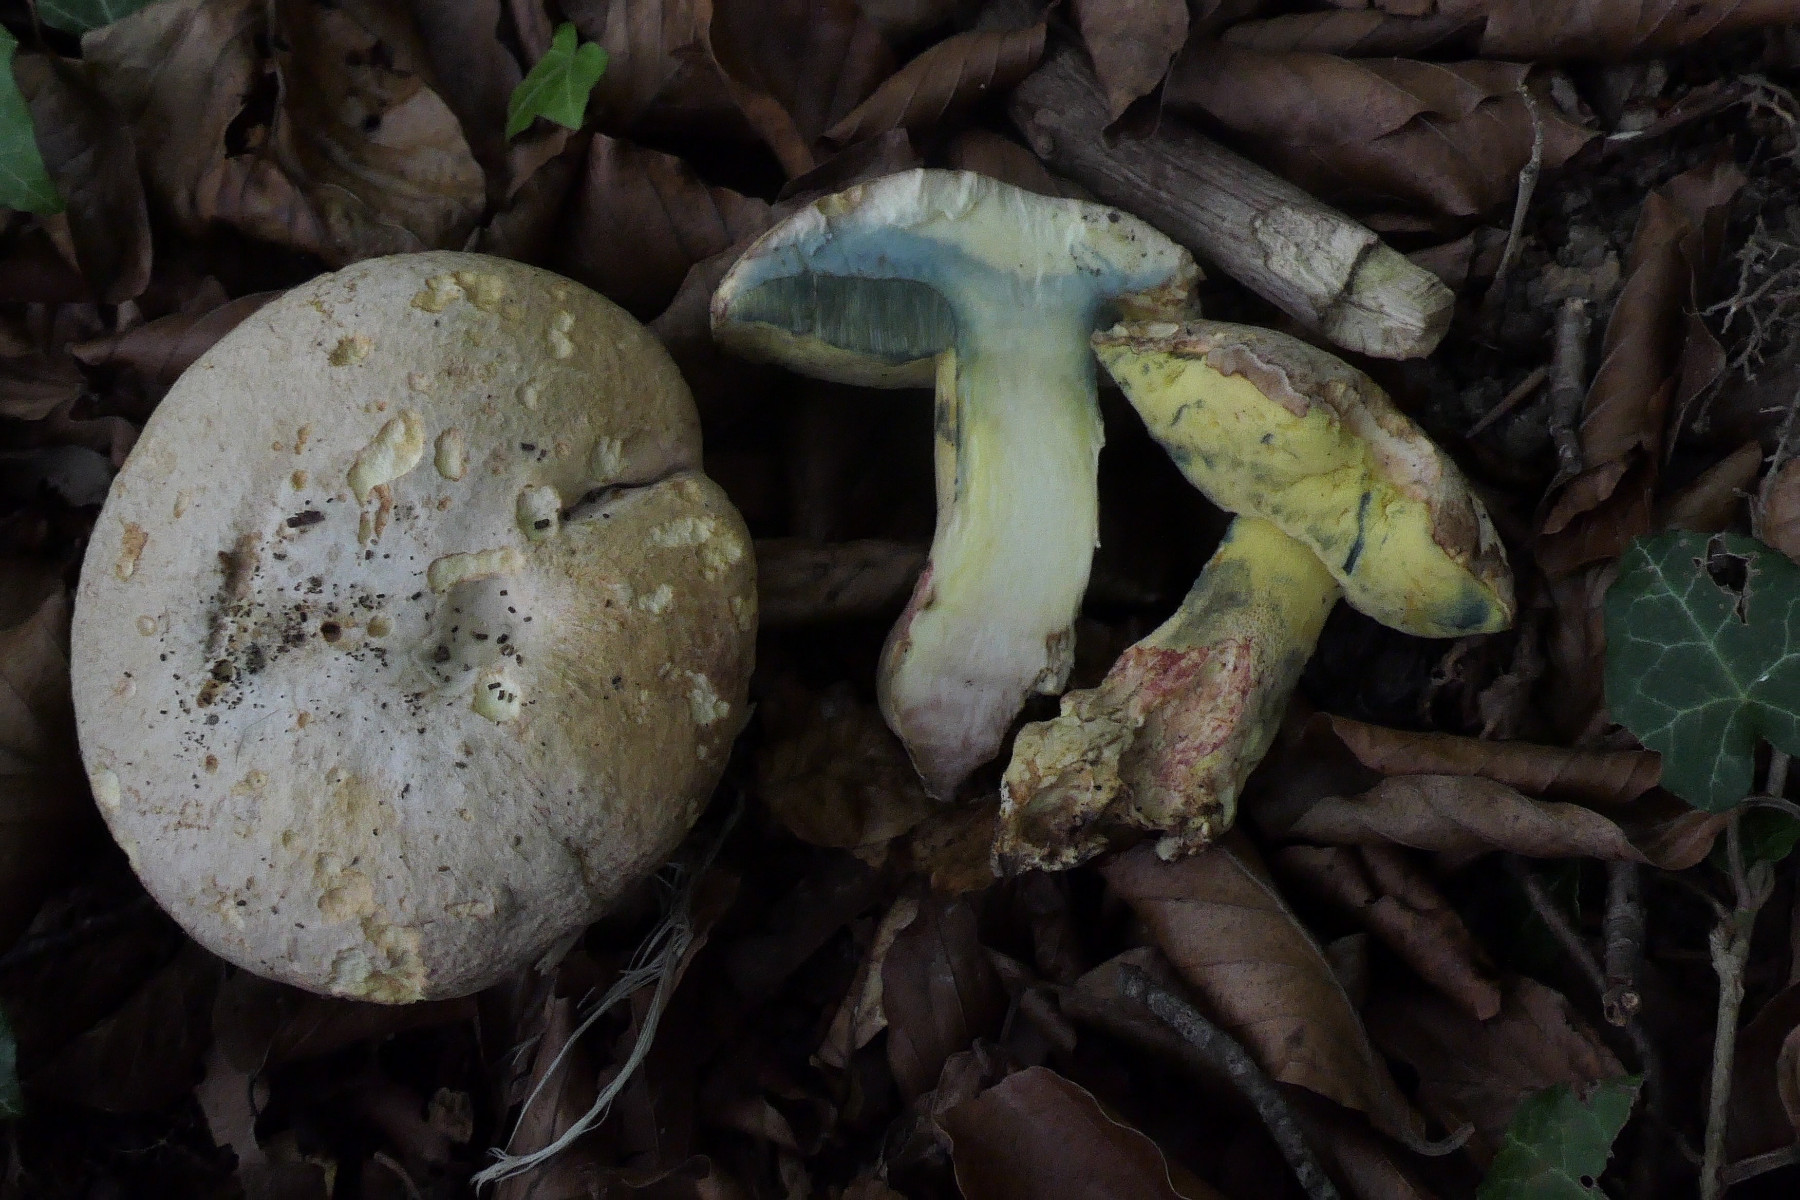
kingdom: Fungi
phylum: Basidiomycota
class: Agaricomycetes
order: Boletales
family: Boletaceae
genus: Butyriboletus
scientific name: Butyriboletus fechtneri
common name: sølvskinnende rørhat
